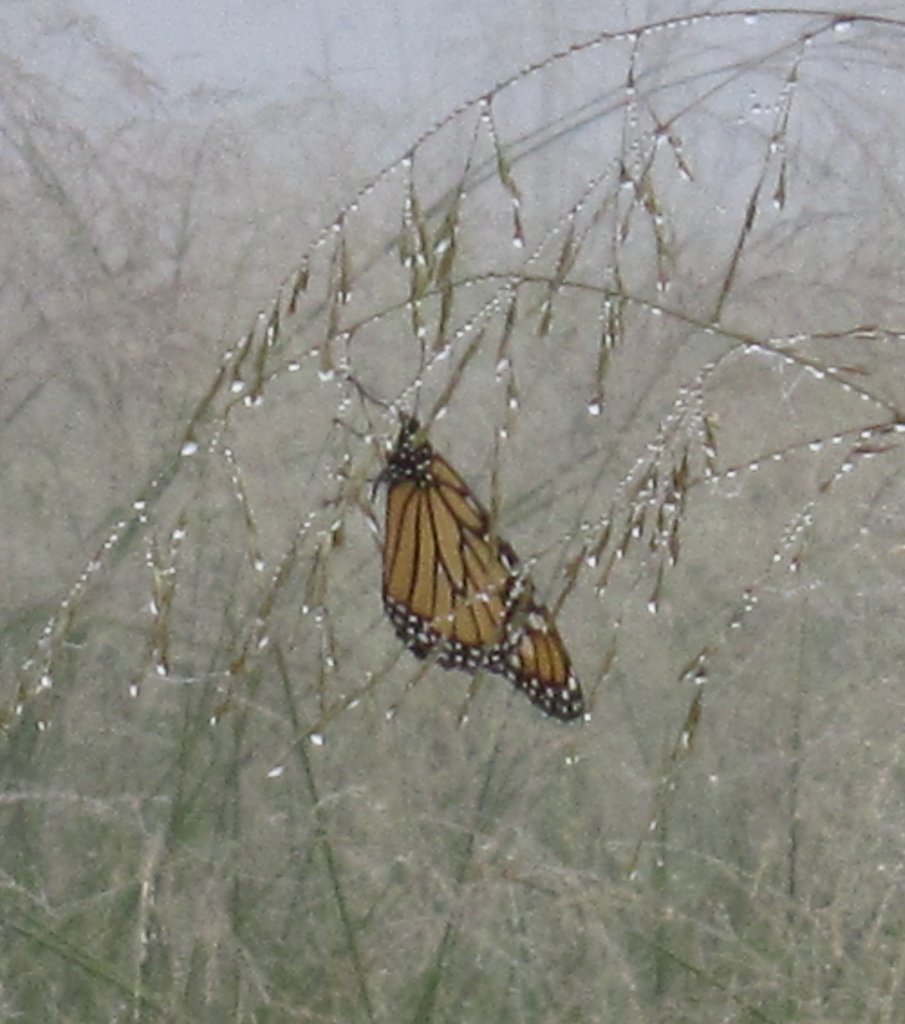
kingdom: Animalia
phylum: Arthropoda
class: Insecta
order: Lepidoptera
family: Nymphalidae
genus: Danaus
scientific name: Danaus plexippus
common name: Monarch
